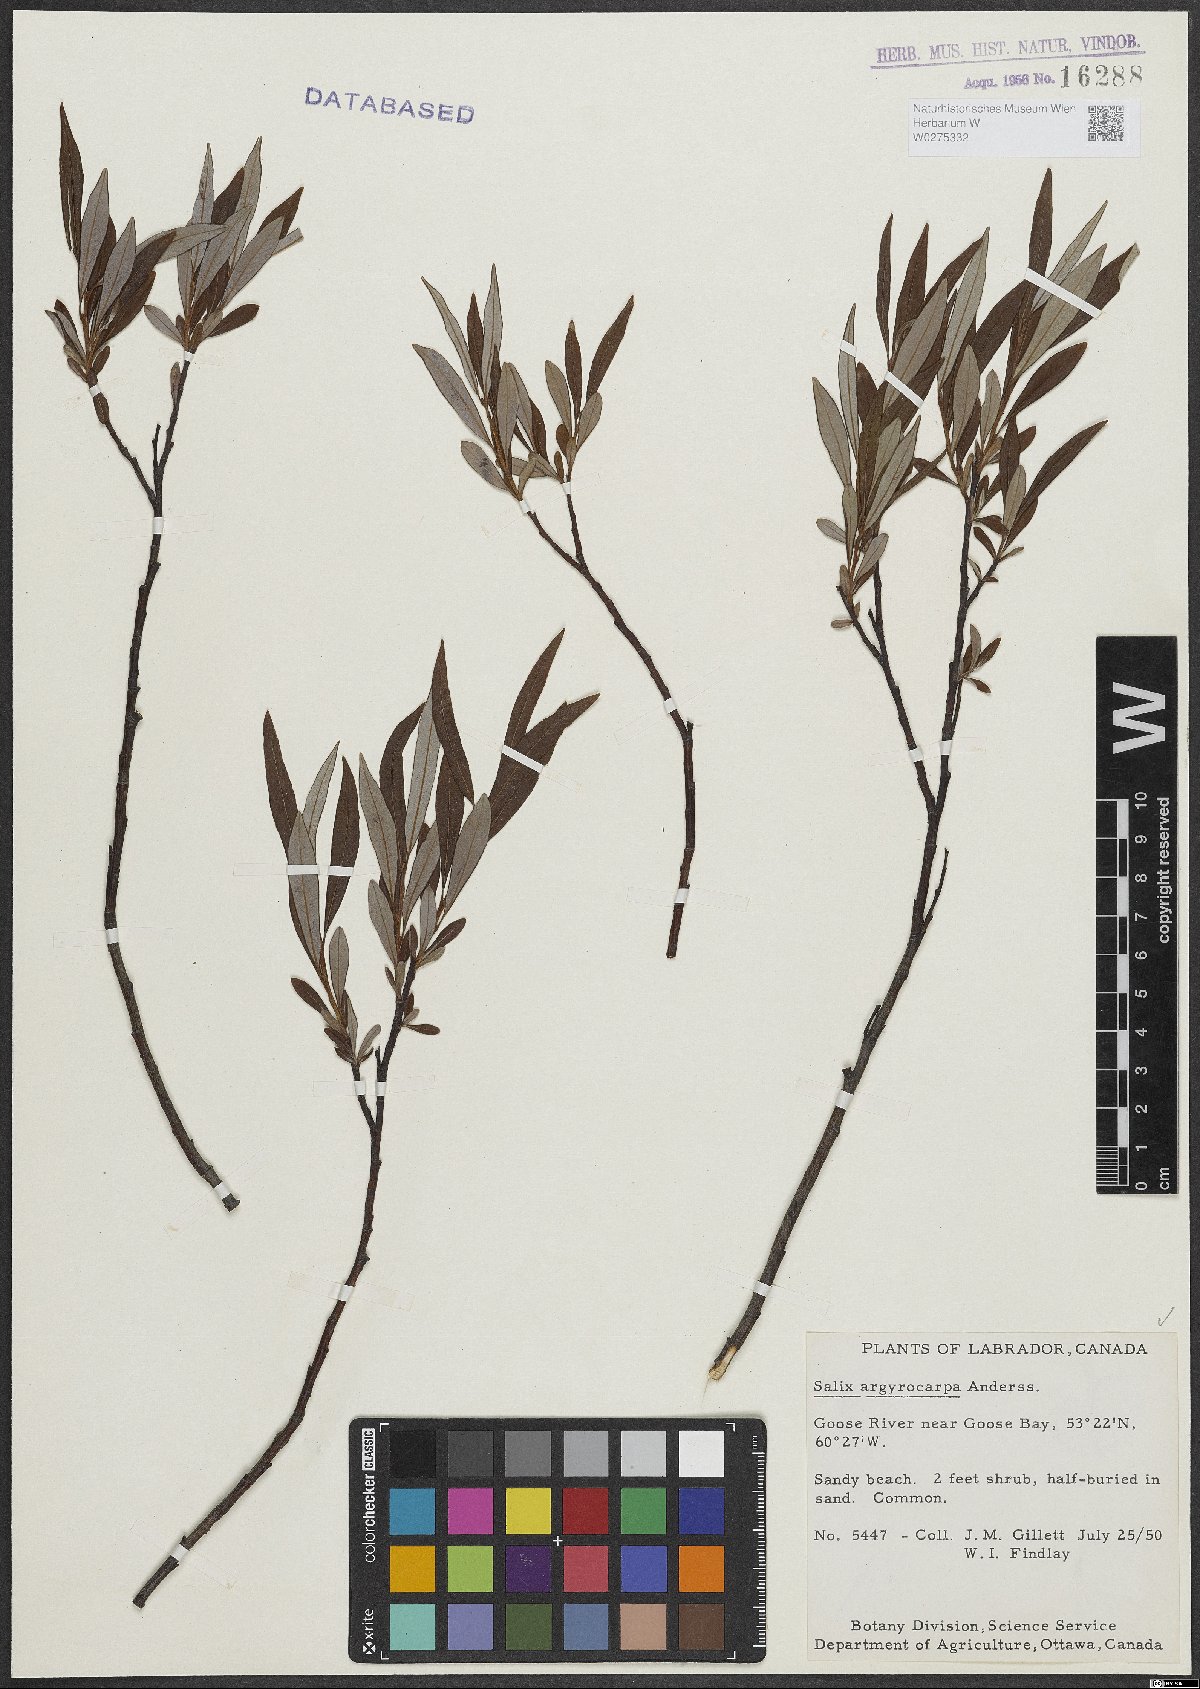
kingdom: Plantae
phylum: Tracheophyta
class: Magnoliopsida
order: Malpighiales
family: Salicaceae
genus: Salix
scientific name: Salix argyrocarpa
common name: Labrador willow
